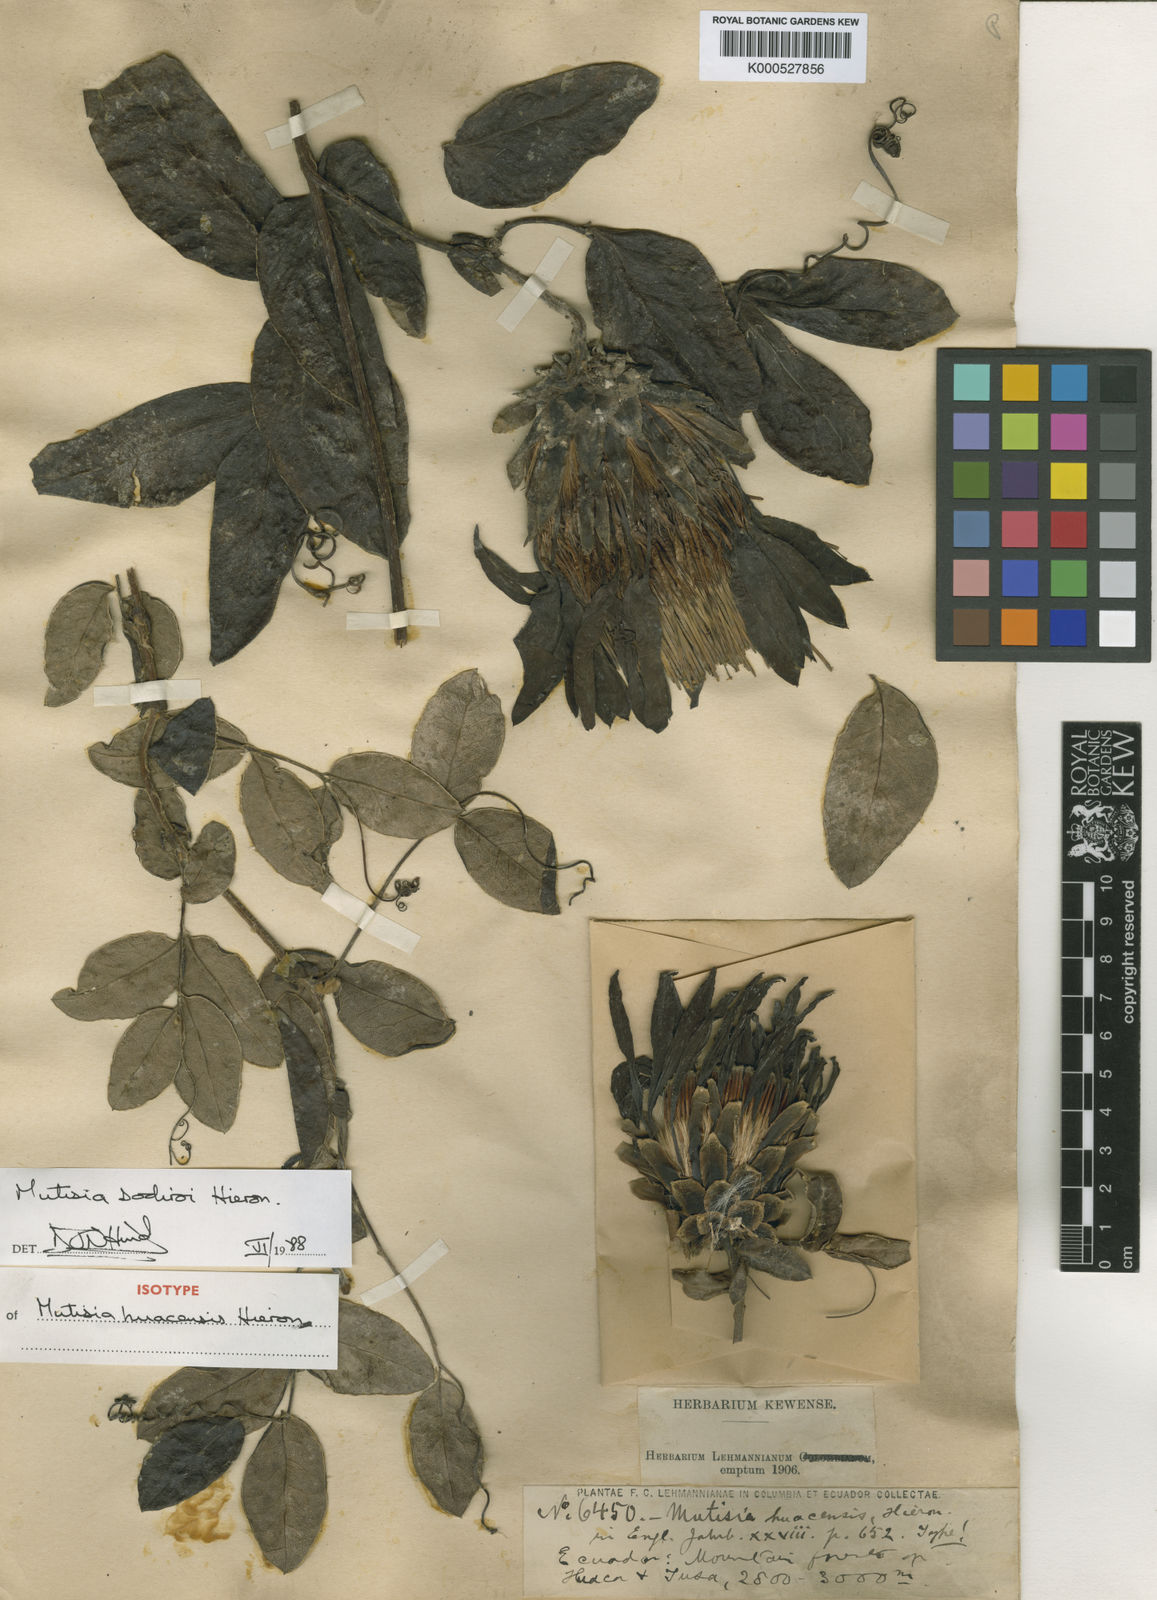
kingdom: Plantae
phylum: Tracheophyta
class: Magnoliopsida
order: Asterales
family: Asteraceae
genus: Mutisia
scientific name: Mutisia sodiroi
